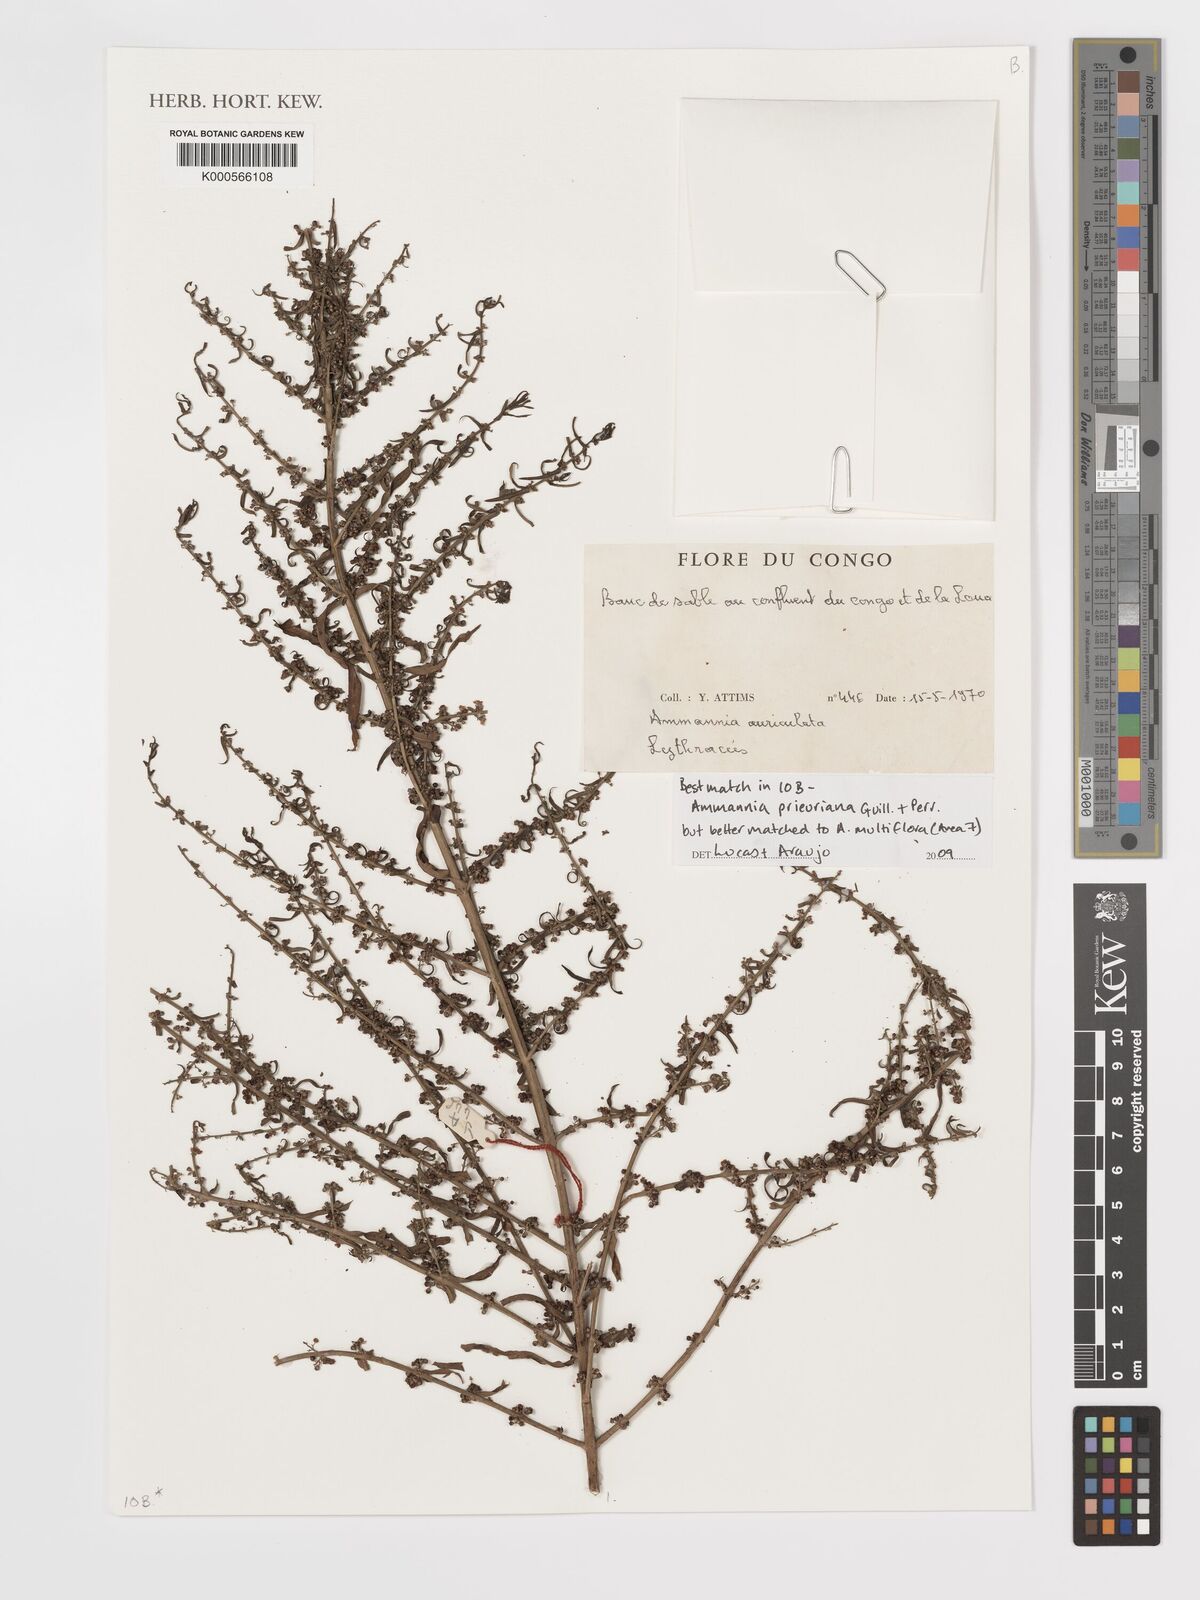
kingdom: Plantae
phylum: Tracheophyta
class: Magnoliopsida
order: Myrtales
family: Lythraceae
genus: Ammannia
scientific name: Ammannia prieuriana
